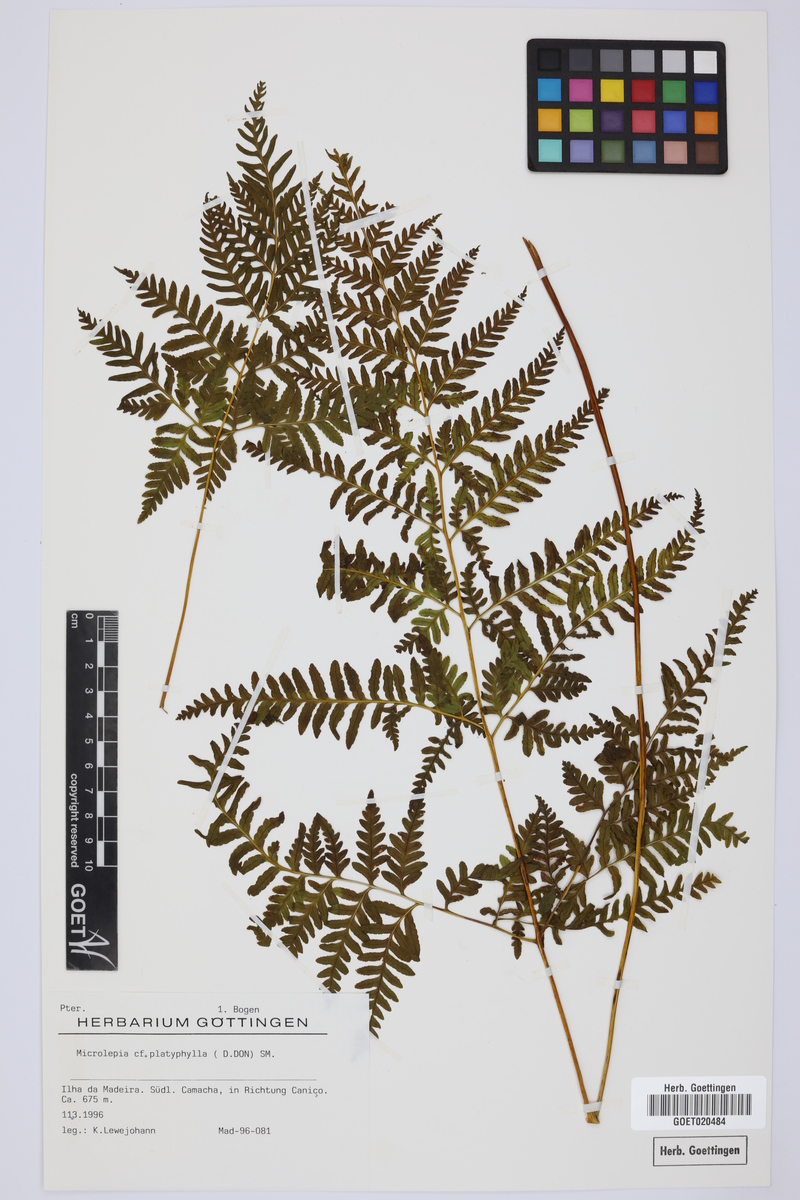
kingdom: Plantae
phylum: Tracheophyta
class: Polypodiopsida
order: Polypodiales
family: Dennstaedtiaceae
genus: Microlepia
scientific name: Microlepia platyphylla
